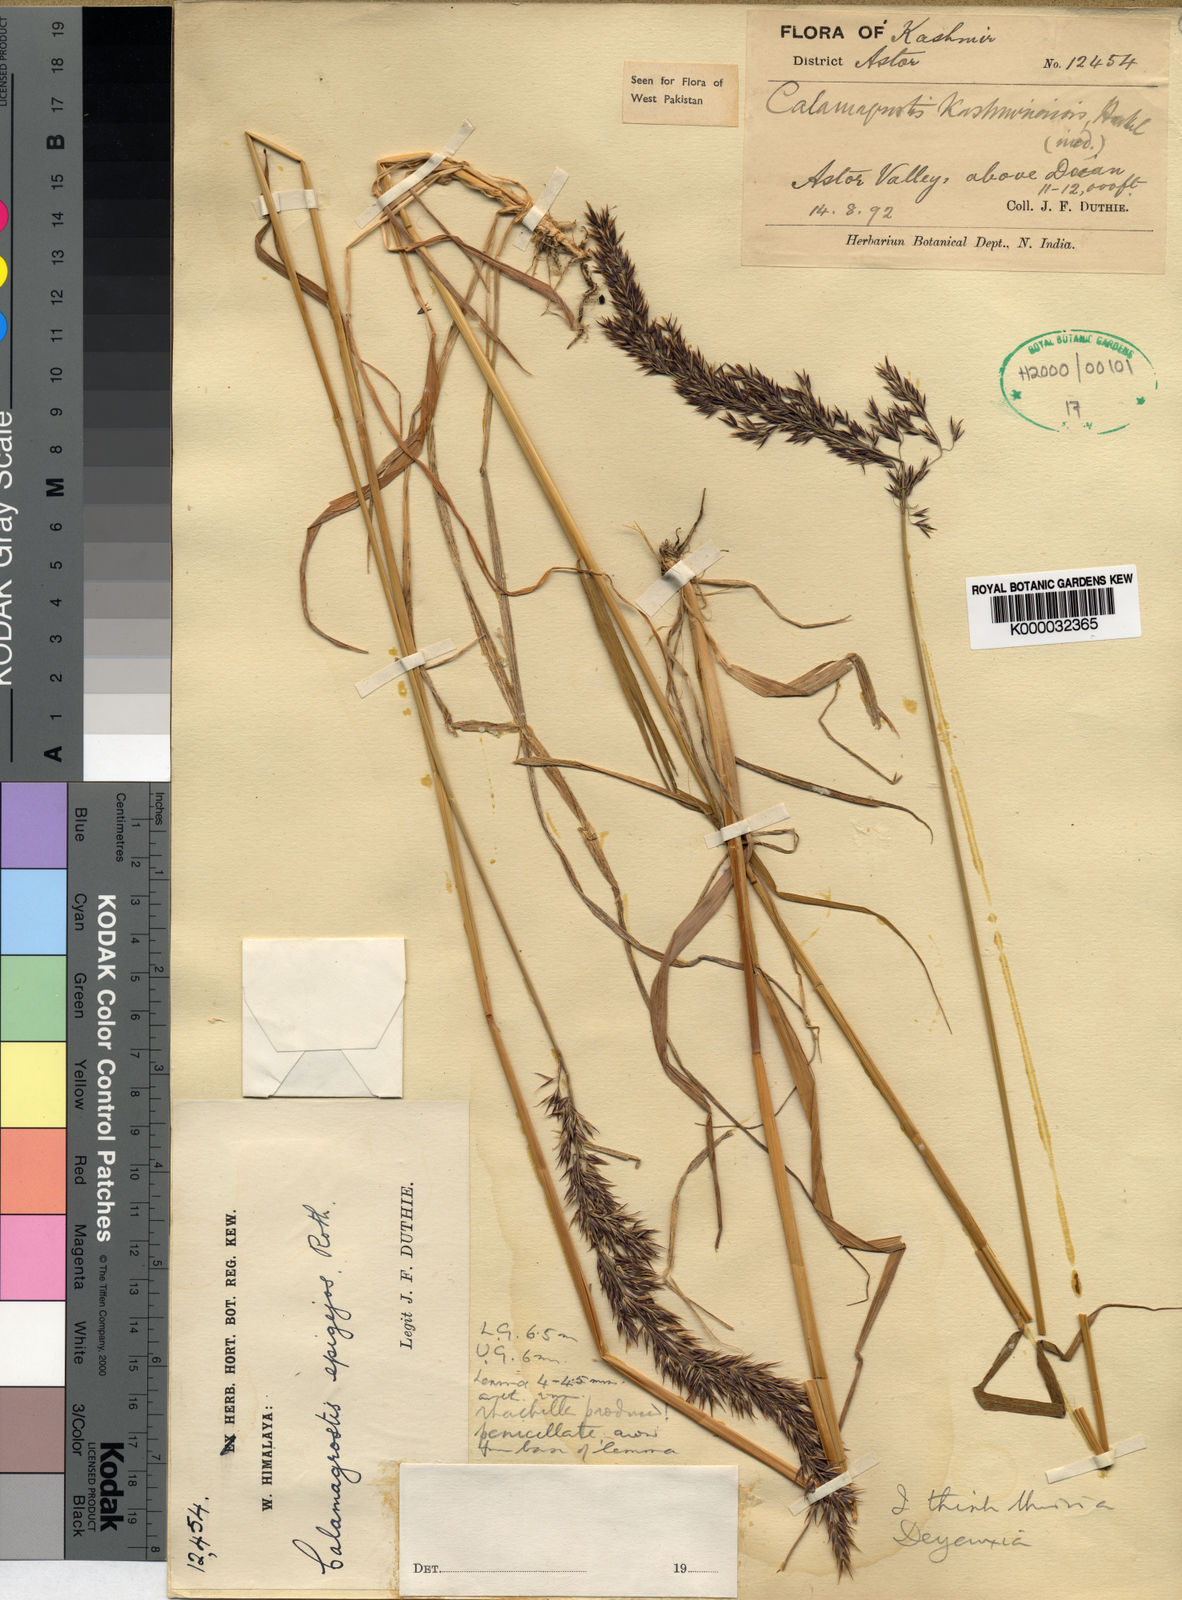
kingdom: Plantae
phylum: Tracheophyta
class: Liliopsida
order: Poales
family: Poaceae
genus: Calamagrostis
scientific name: Calamagrostis decora
